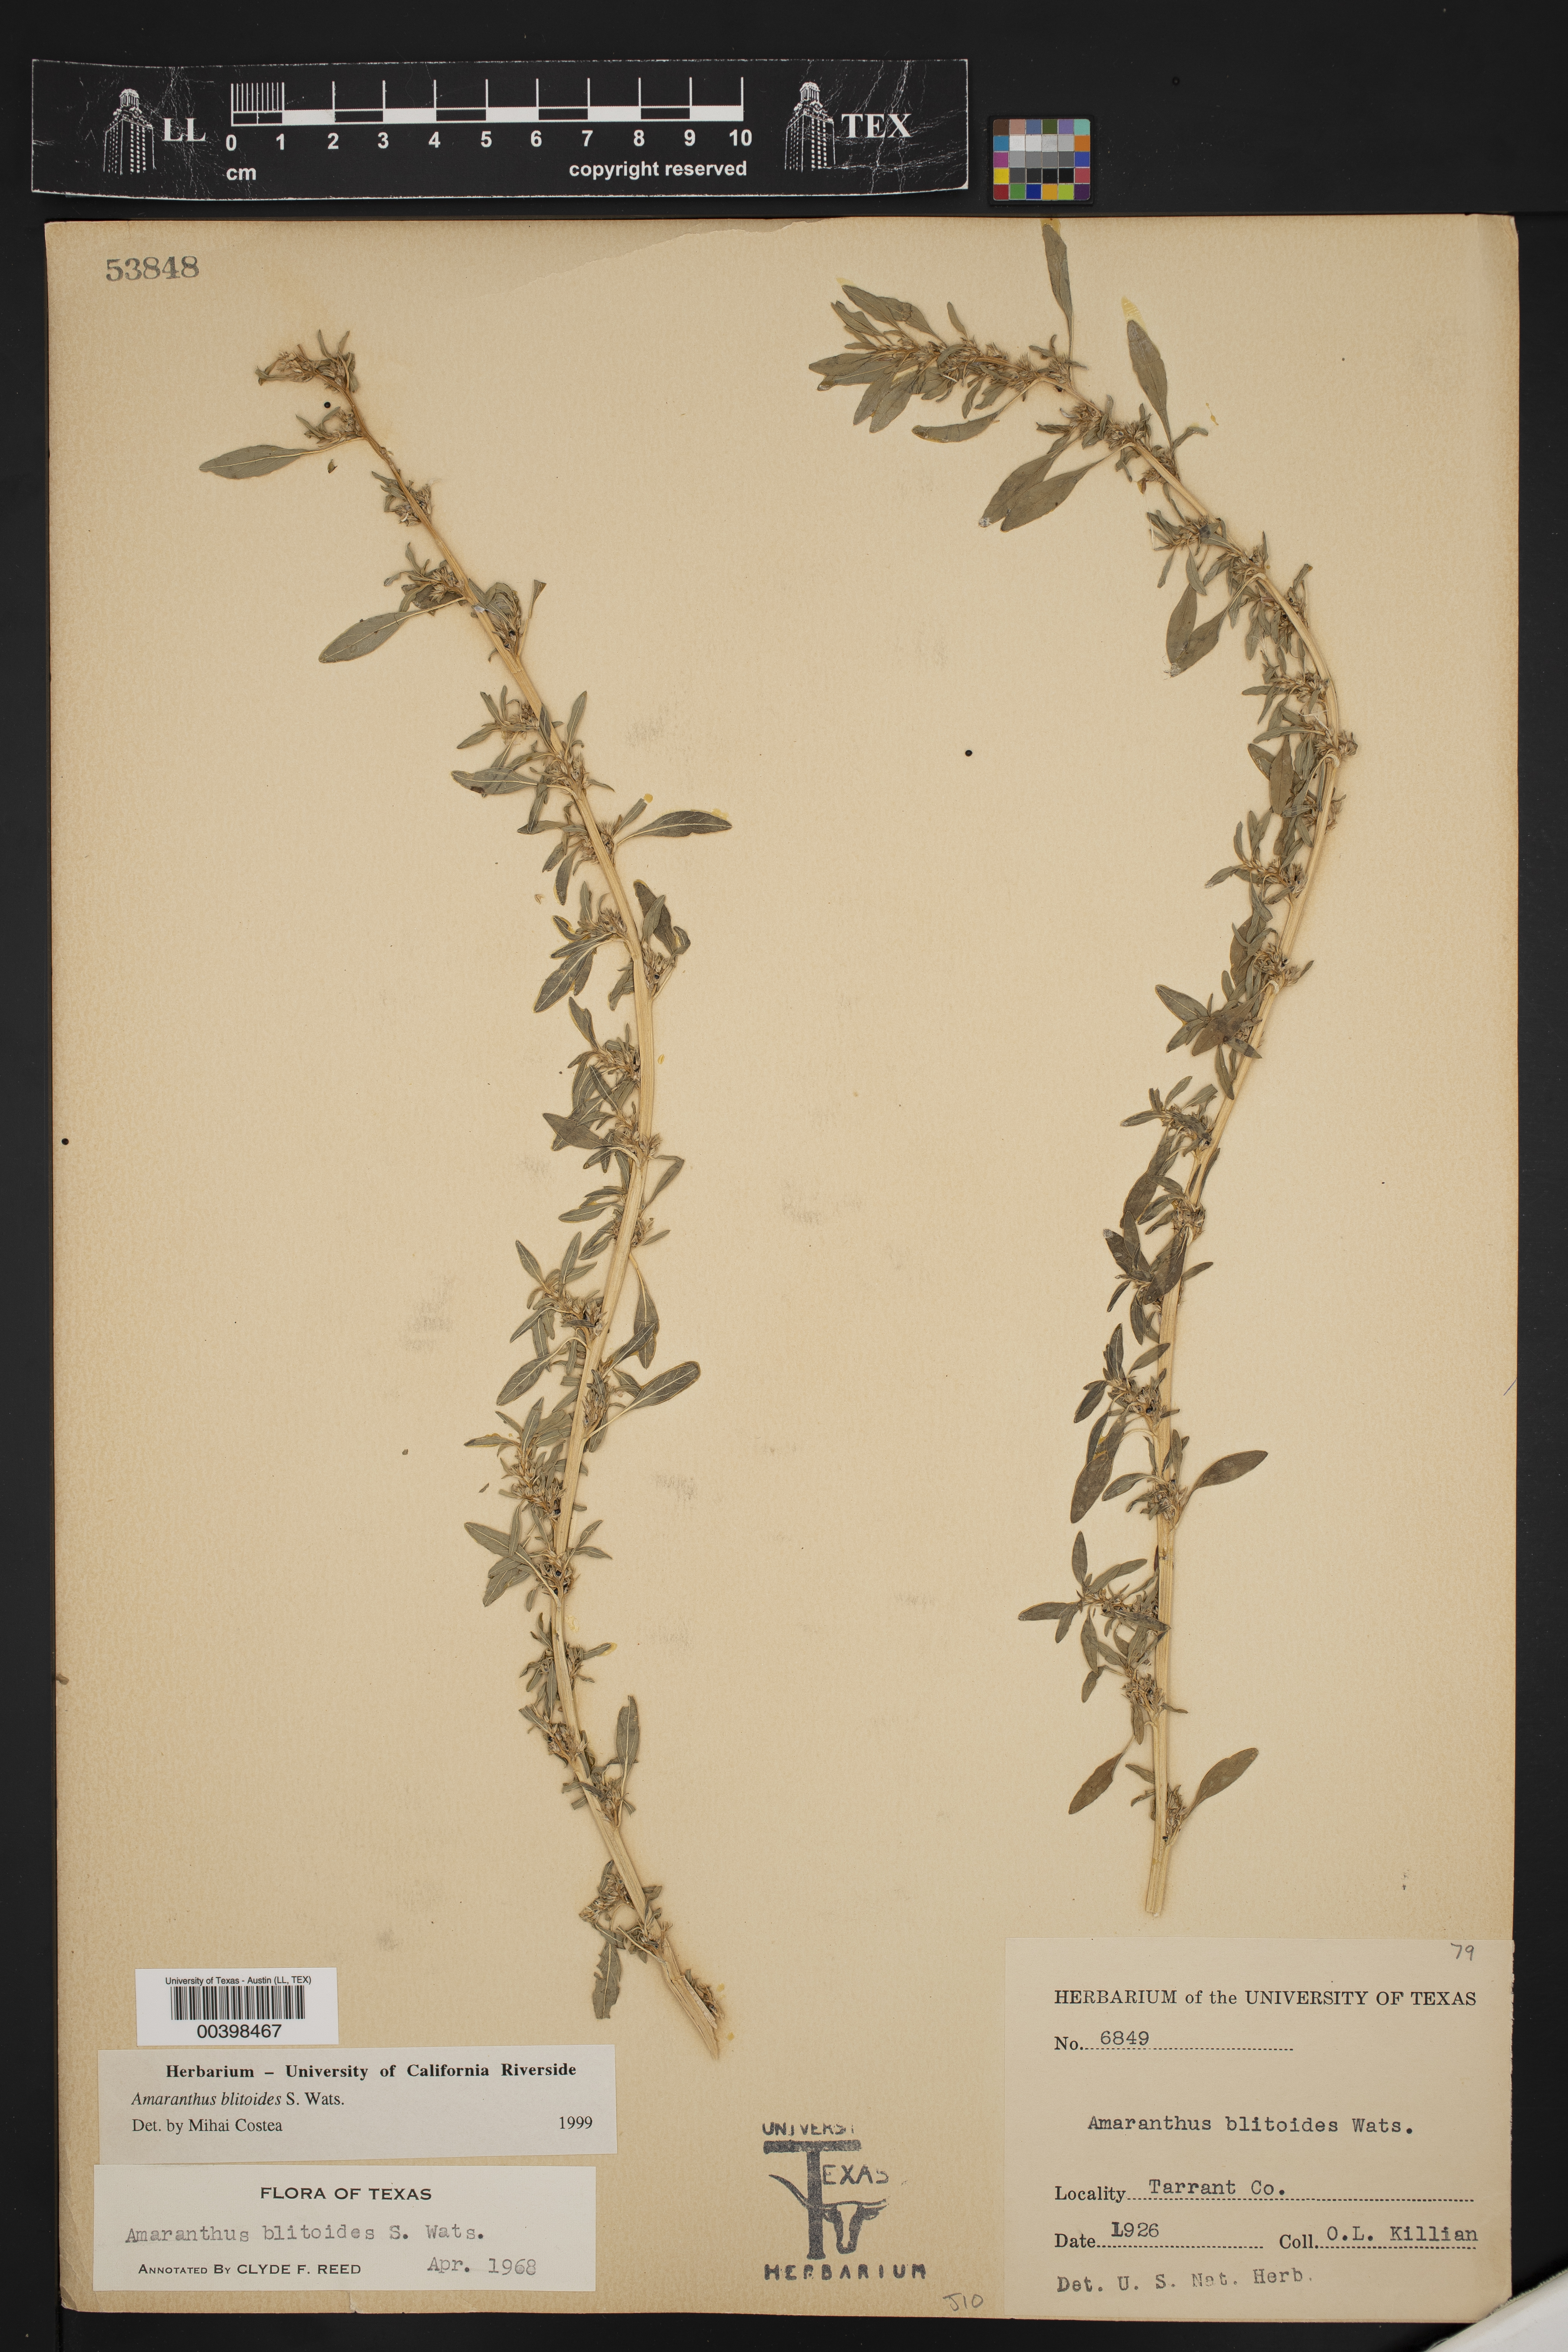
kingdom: Plantae
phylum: Tracheophyta
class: Magnoliopsida
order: Caryophyllales
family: Amaranthaceae
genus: Amaranthus
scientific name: Amaranthus blitoides
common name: Prostrate pigweed
